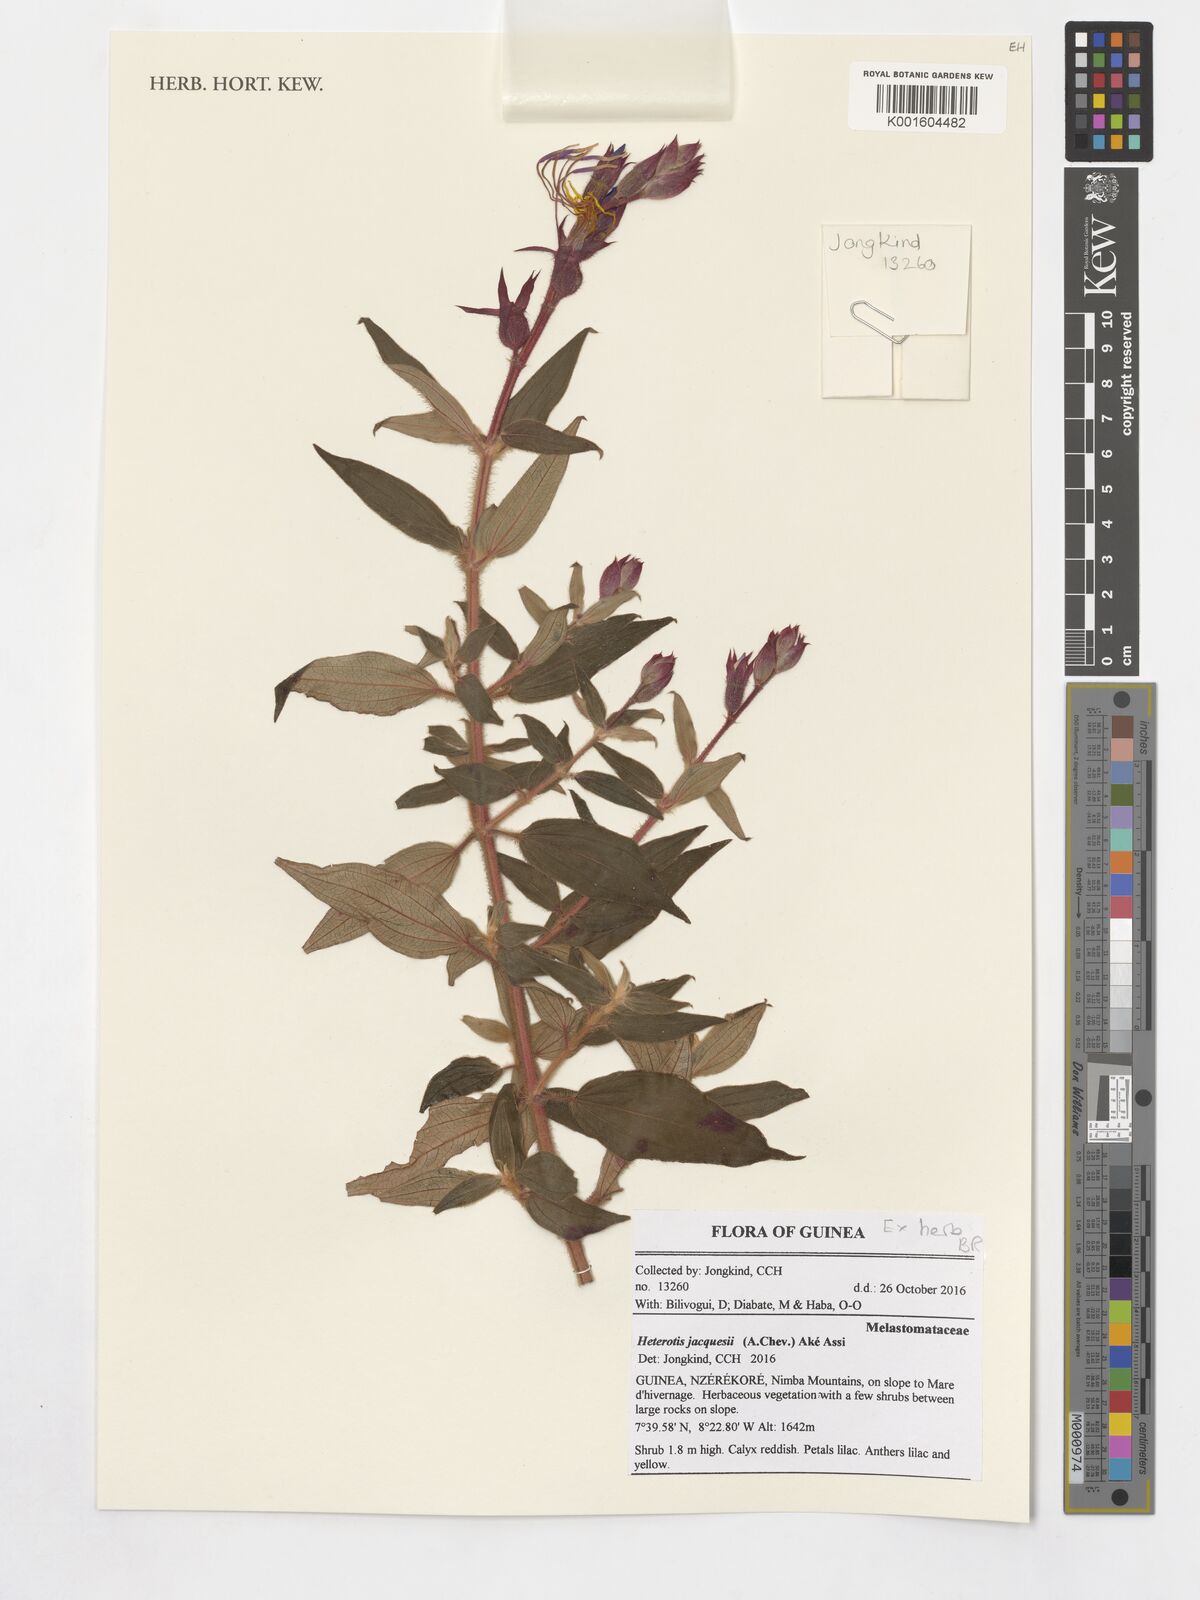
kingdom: Plantae
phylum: Tracheophyta
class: Magnoliopsida
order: Myrtales
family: Melastomataceae
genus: Guyonia
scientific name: Guyonia jacquesii
